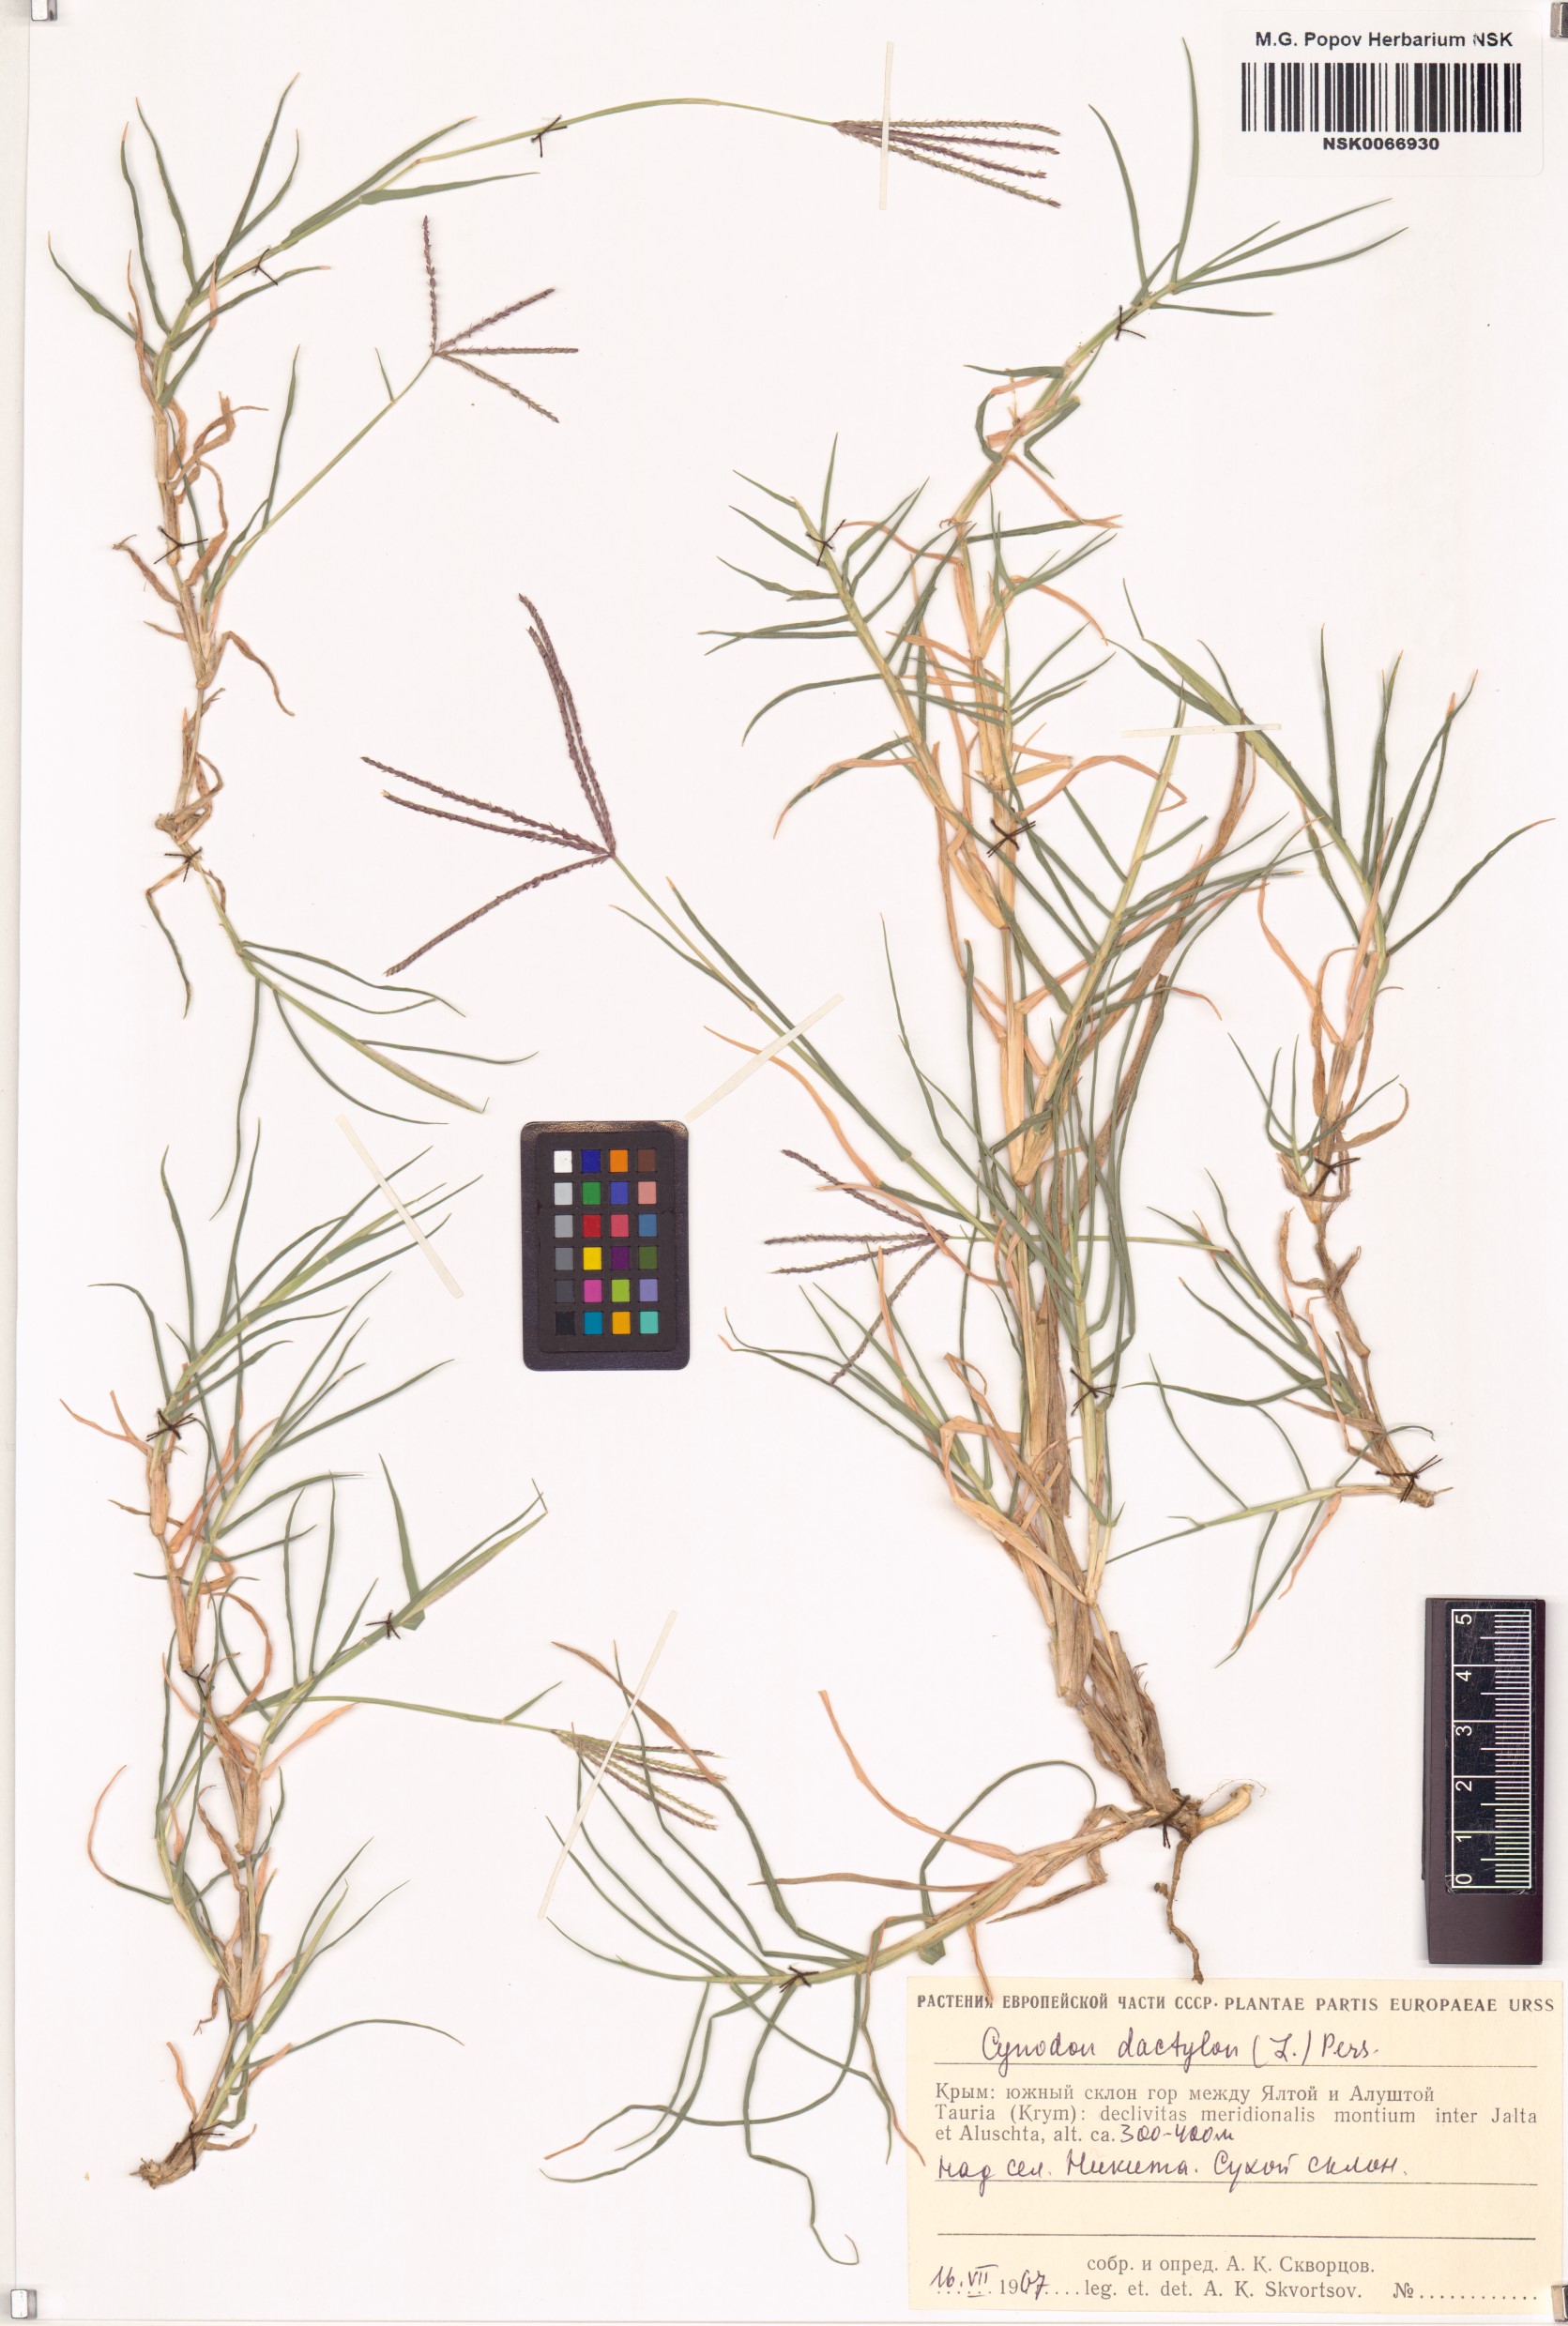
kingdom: Plantae
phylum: Tracheophyta
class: Liliopsida
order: Poales
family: Poaceae
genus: Cynodon
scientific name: Cynodon dactylon
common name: Bermuda grass
